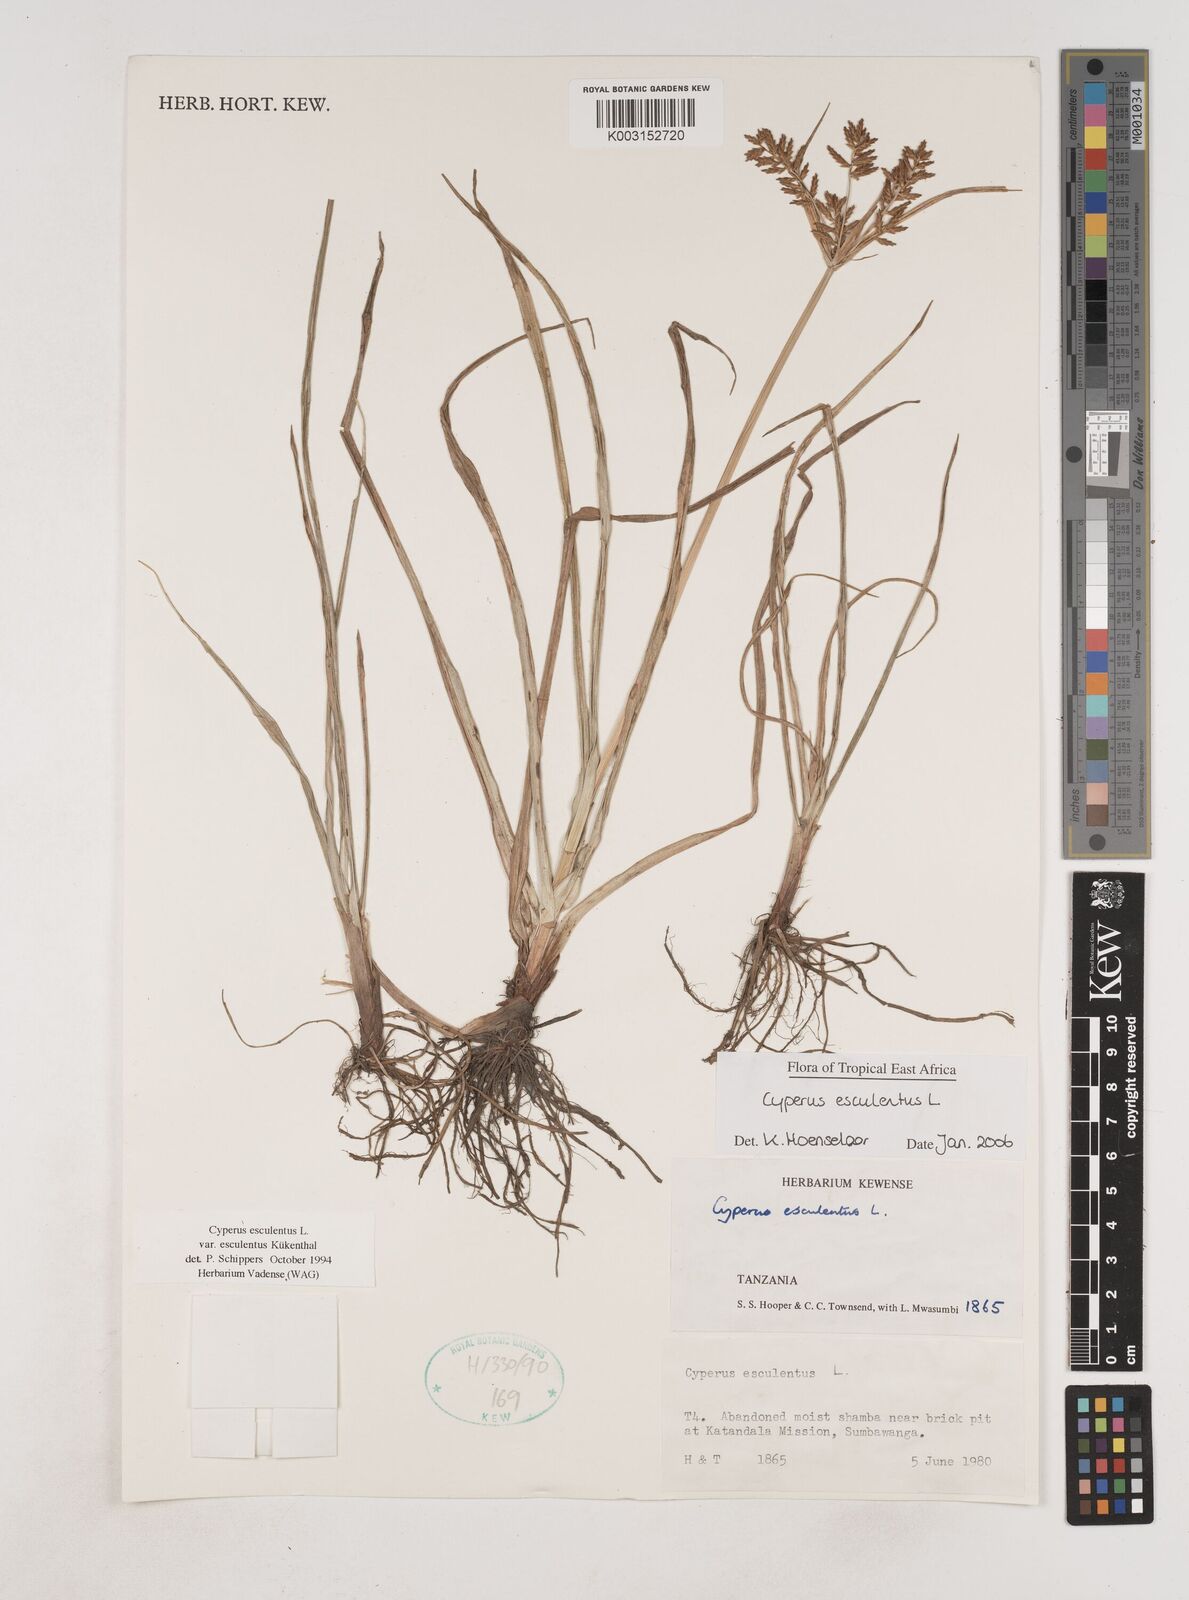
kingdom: Plantae
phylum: Tracheophyta
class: Liliopsida
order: Poales
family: Cyperaceae
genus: Cyperus
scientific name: Cyperus esculentus
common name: Yellow nutsedge
